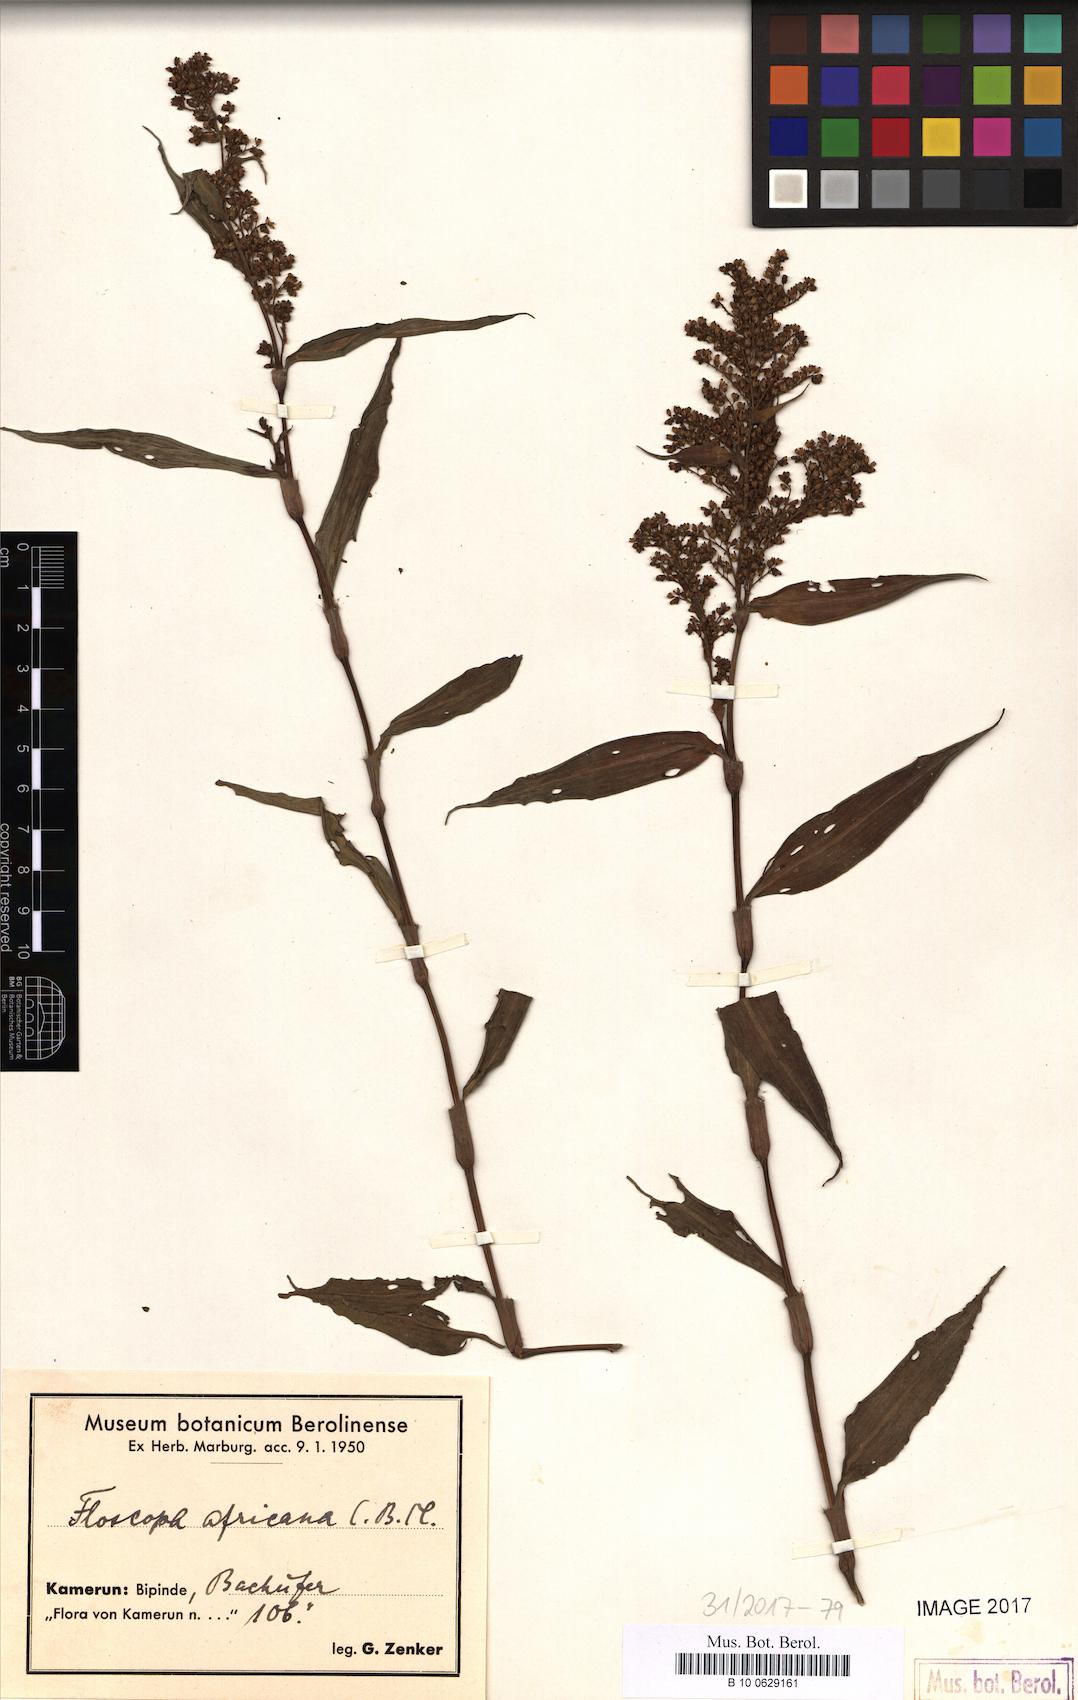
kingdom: Plantae
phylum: Tracheophyta
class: Liliopsida
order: Commelinales
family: Commelinaceae
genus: Floscopa
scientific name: Floscopa africana
